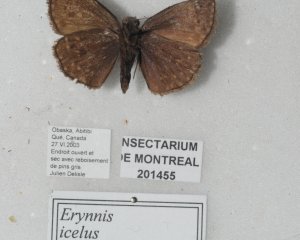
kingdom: Animalia
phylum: Arthropoda
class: Insecta
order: Lepidoptera
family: Hesperiidae
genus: Erynnis
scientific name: Erynnis icelus
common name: Dreamy Duskywing
